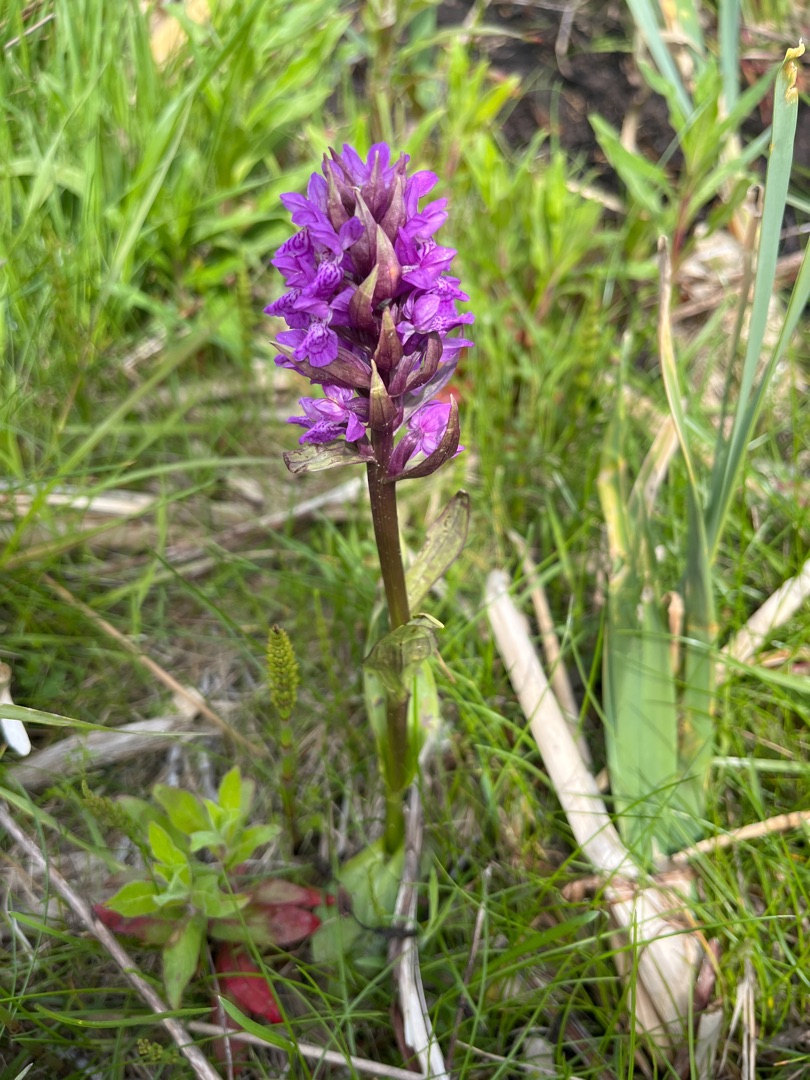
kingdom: Plantae
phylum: Tracheophyta
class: Liliopsida
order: Asparagales
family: Orchidaceae
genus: Dactylorhiza
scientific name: Dactylorhiza majalis
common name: Maj-gøgeurt
